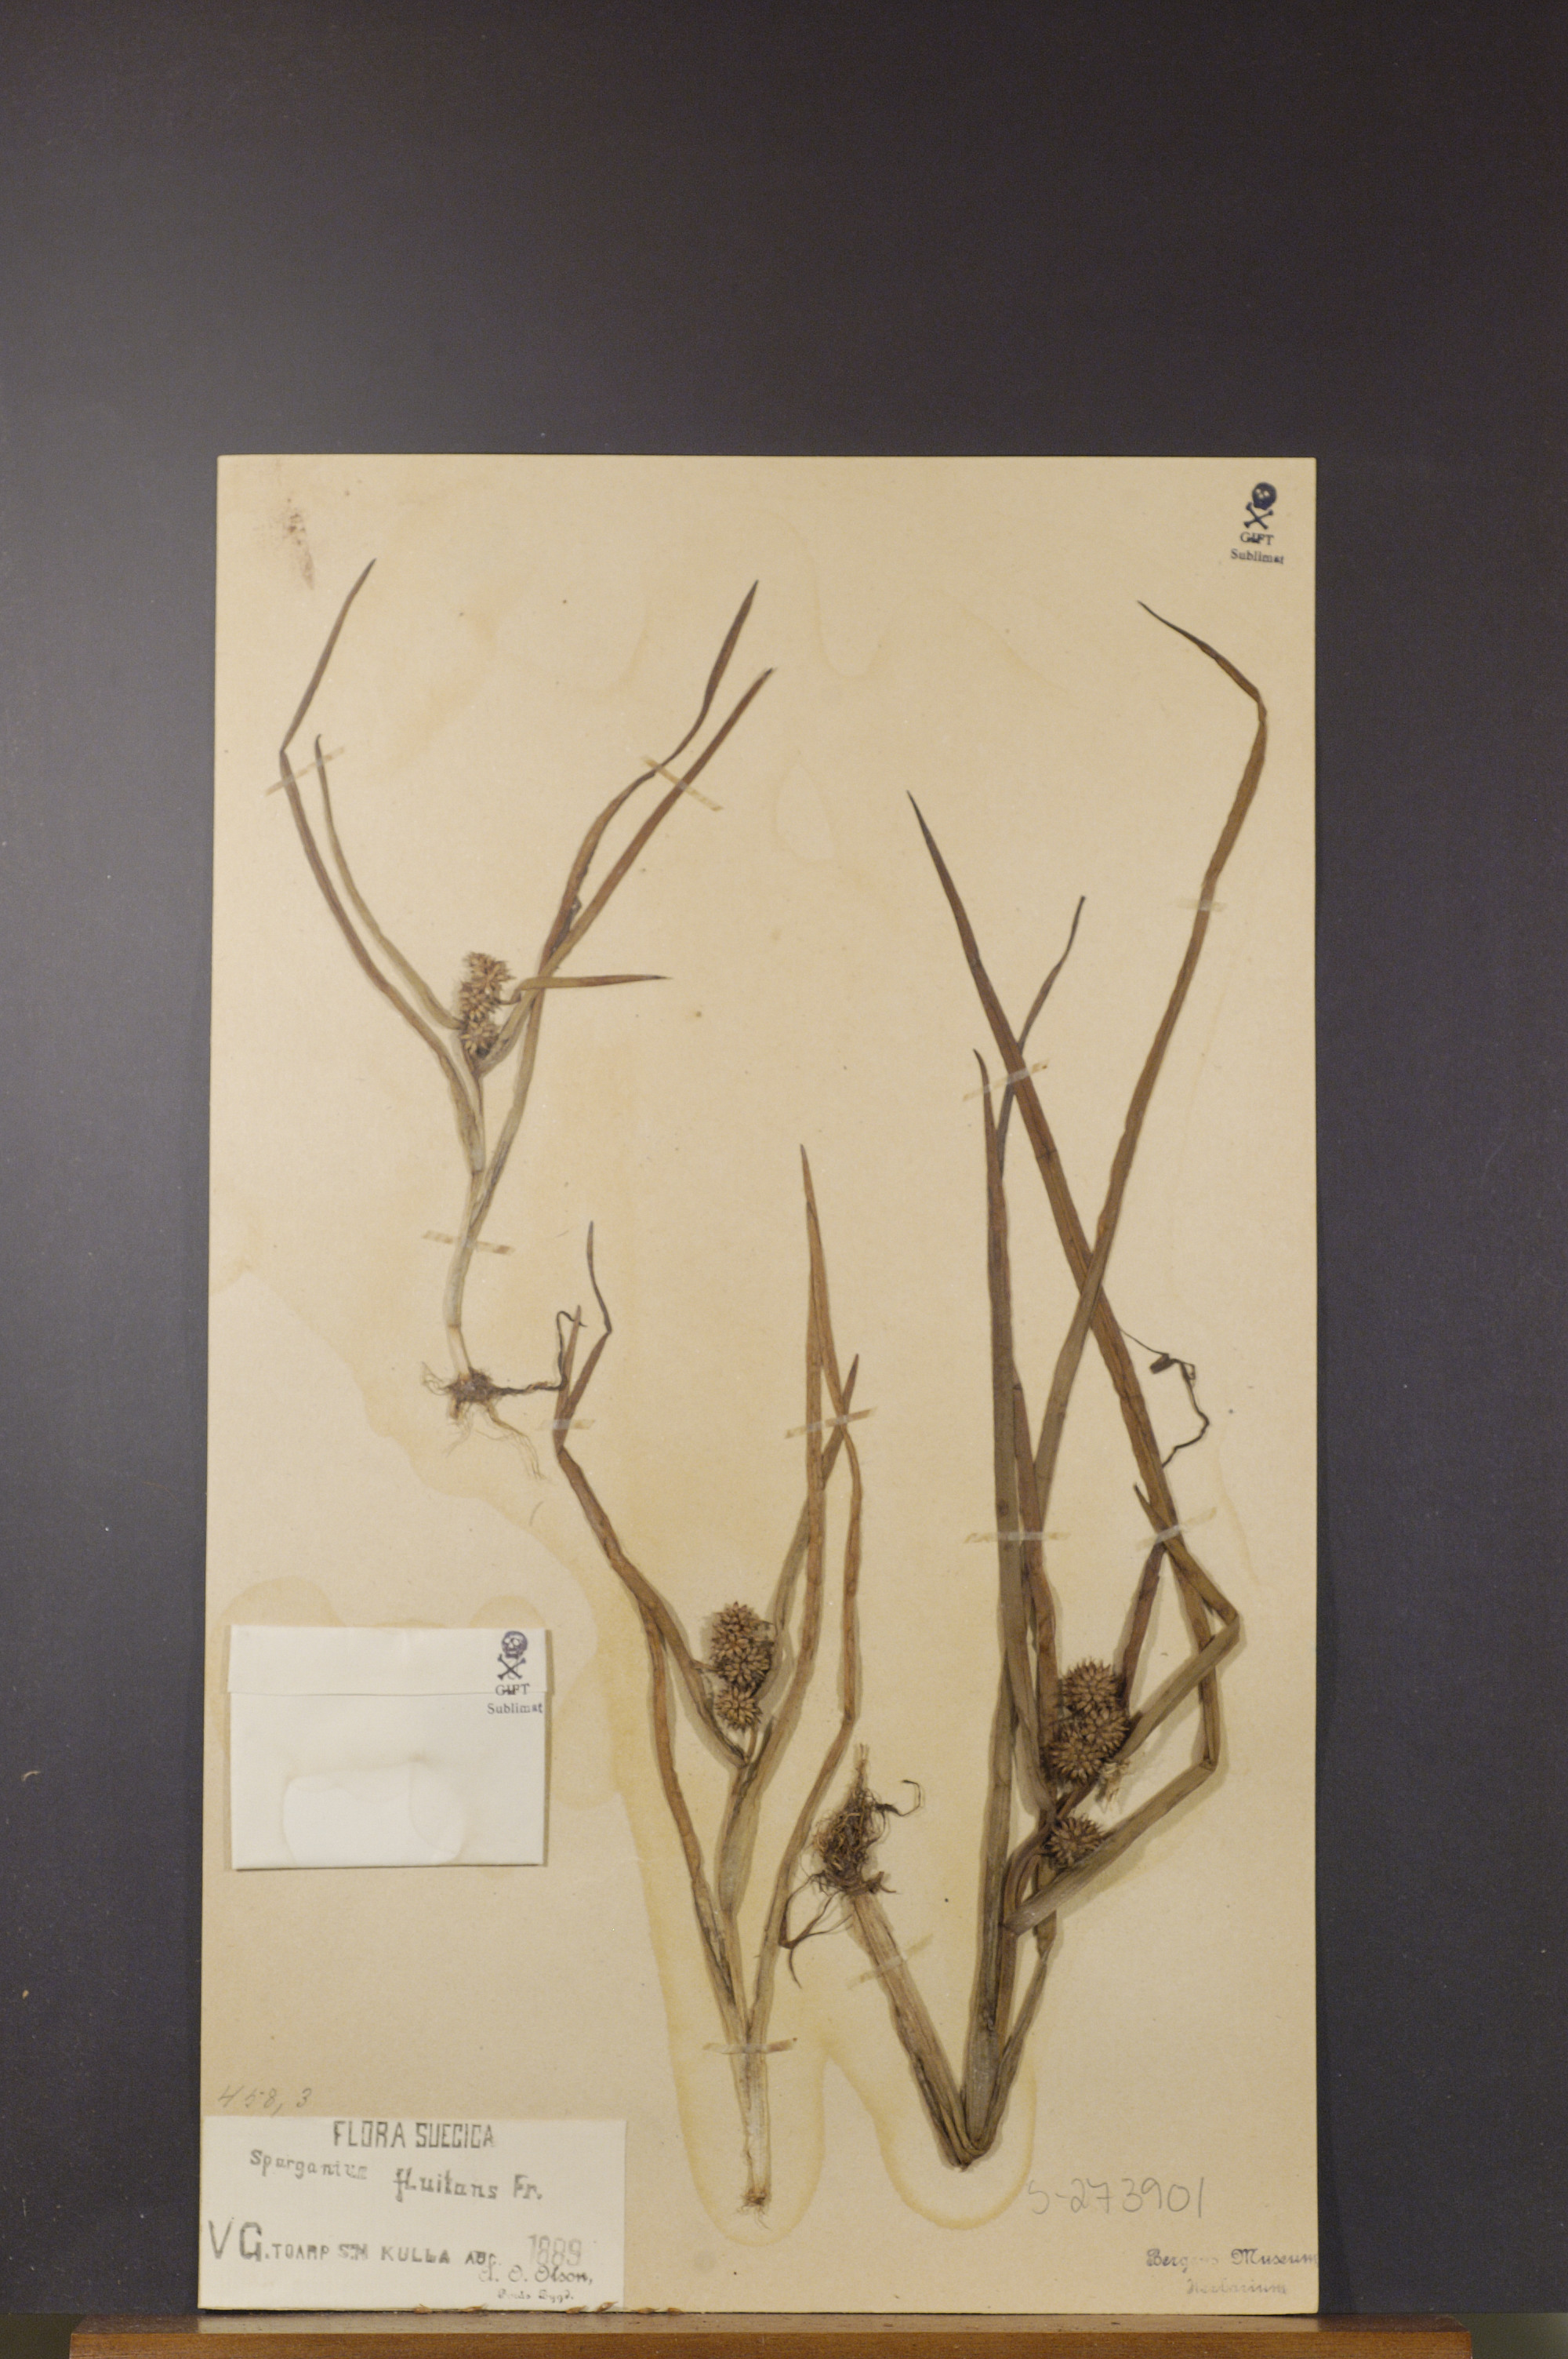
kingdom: Plantae
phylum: Tracheophyta
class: Liliopsida
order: Poales
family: Typhaceae
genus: Sparganium
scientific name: Sparganium angustifolium
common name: Floating bur-reed
